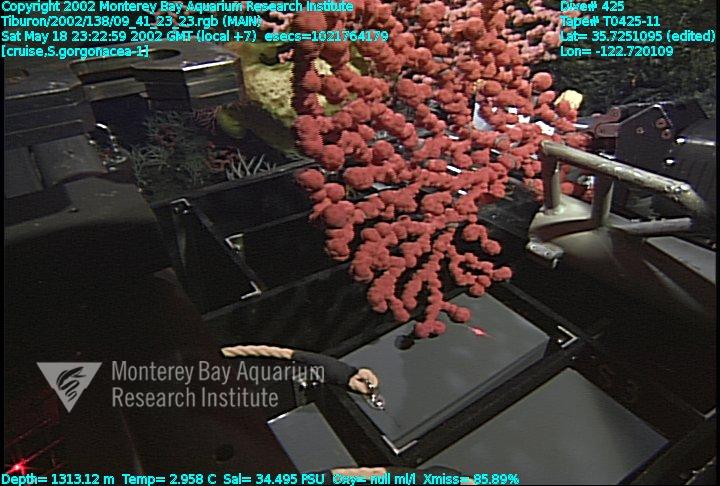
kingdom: Animalia
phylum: Porifera
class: Hexactinellida
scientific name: Hexactinellida
